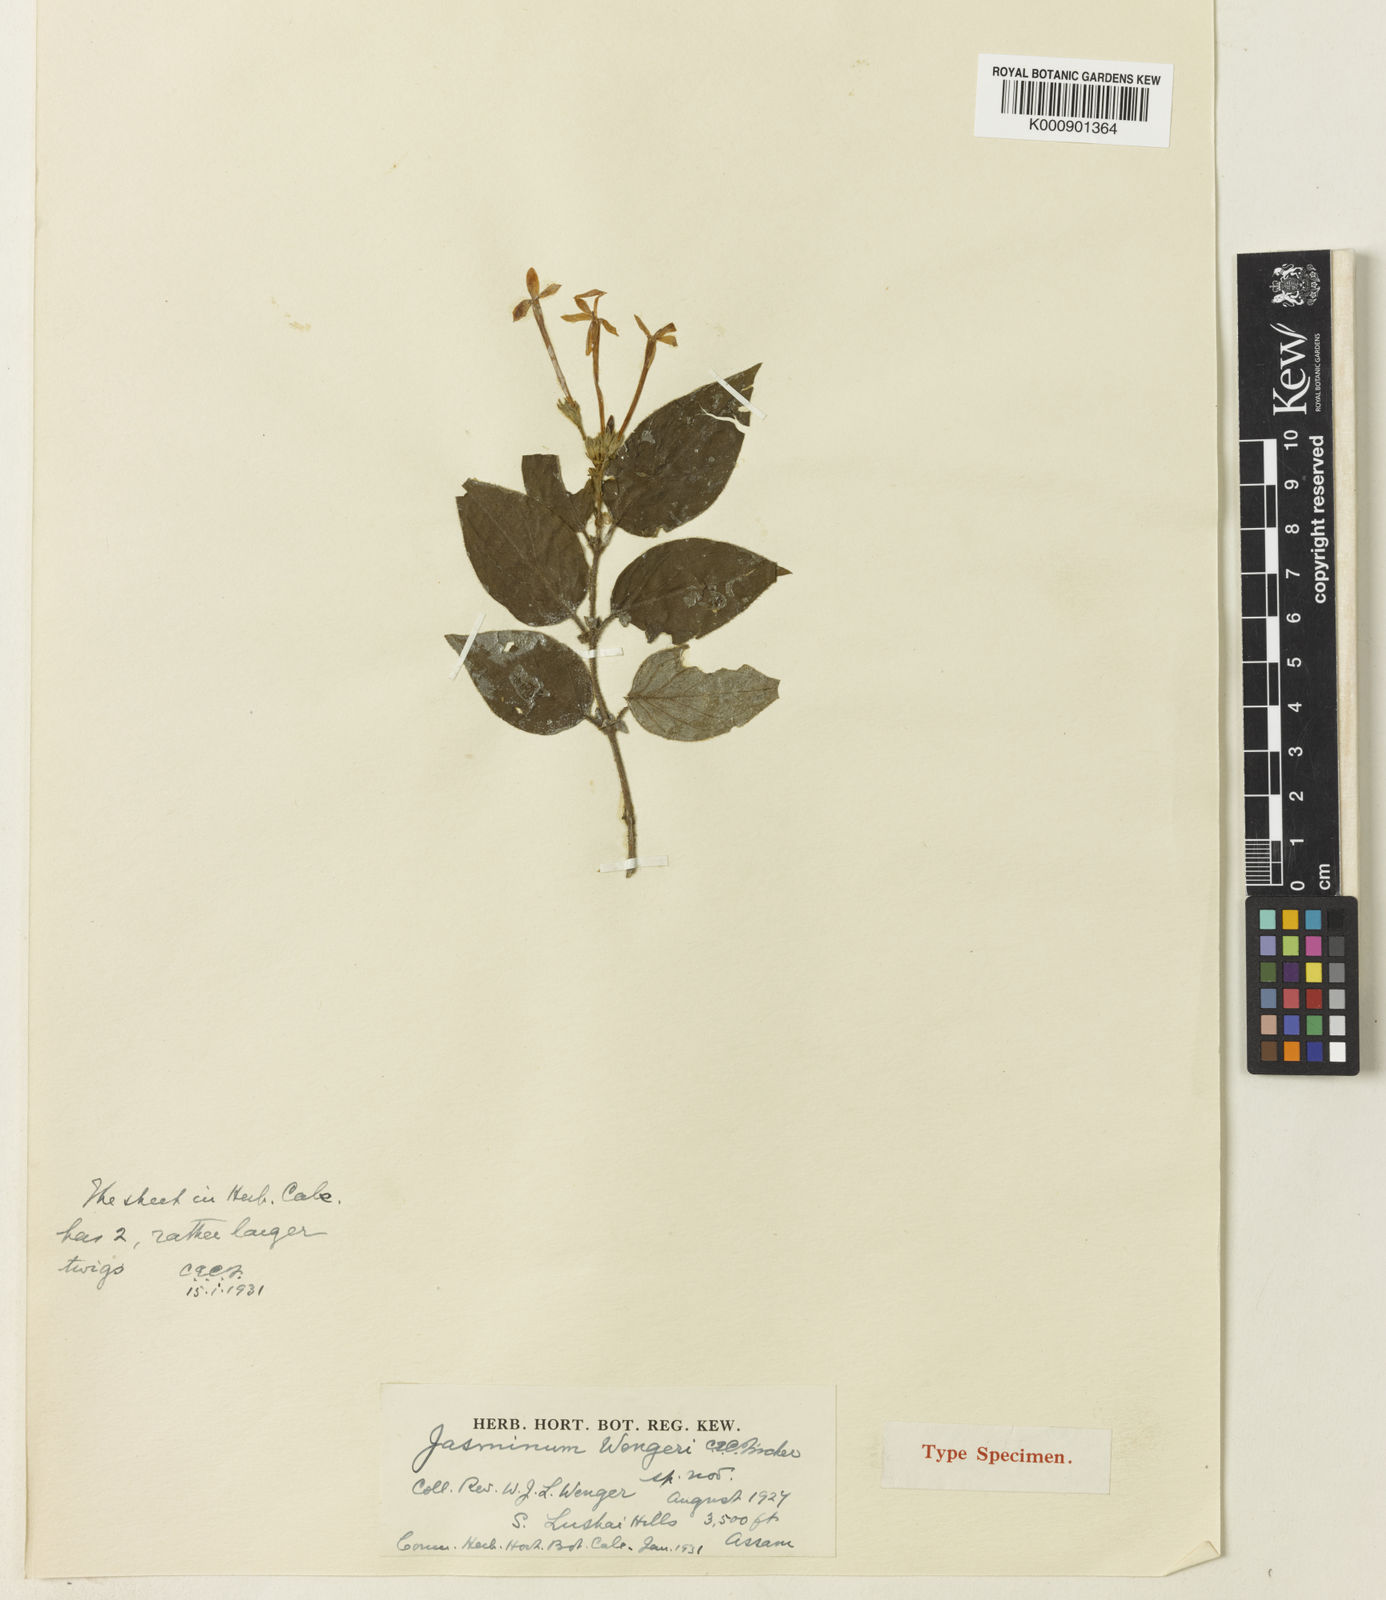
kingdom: Plantae
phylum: Tracheophyta
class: Magnoliopsida
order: Lamiales
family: Oleaceae
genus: Jasminum
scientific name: Jasminum wengeri
